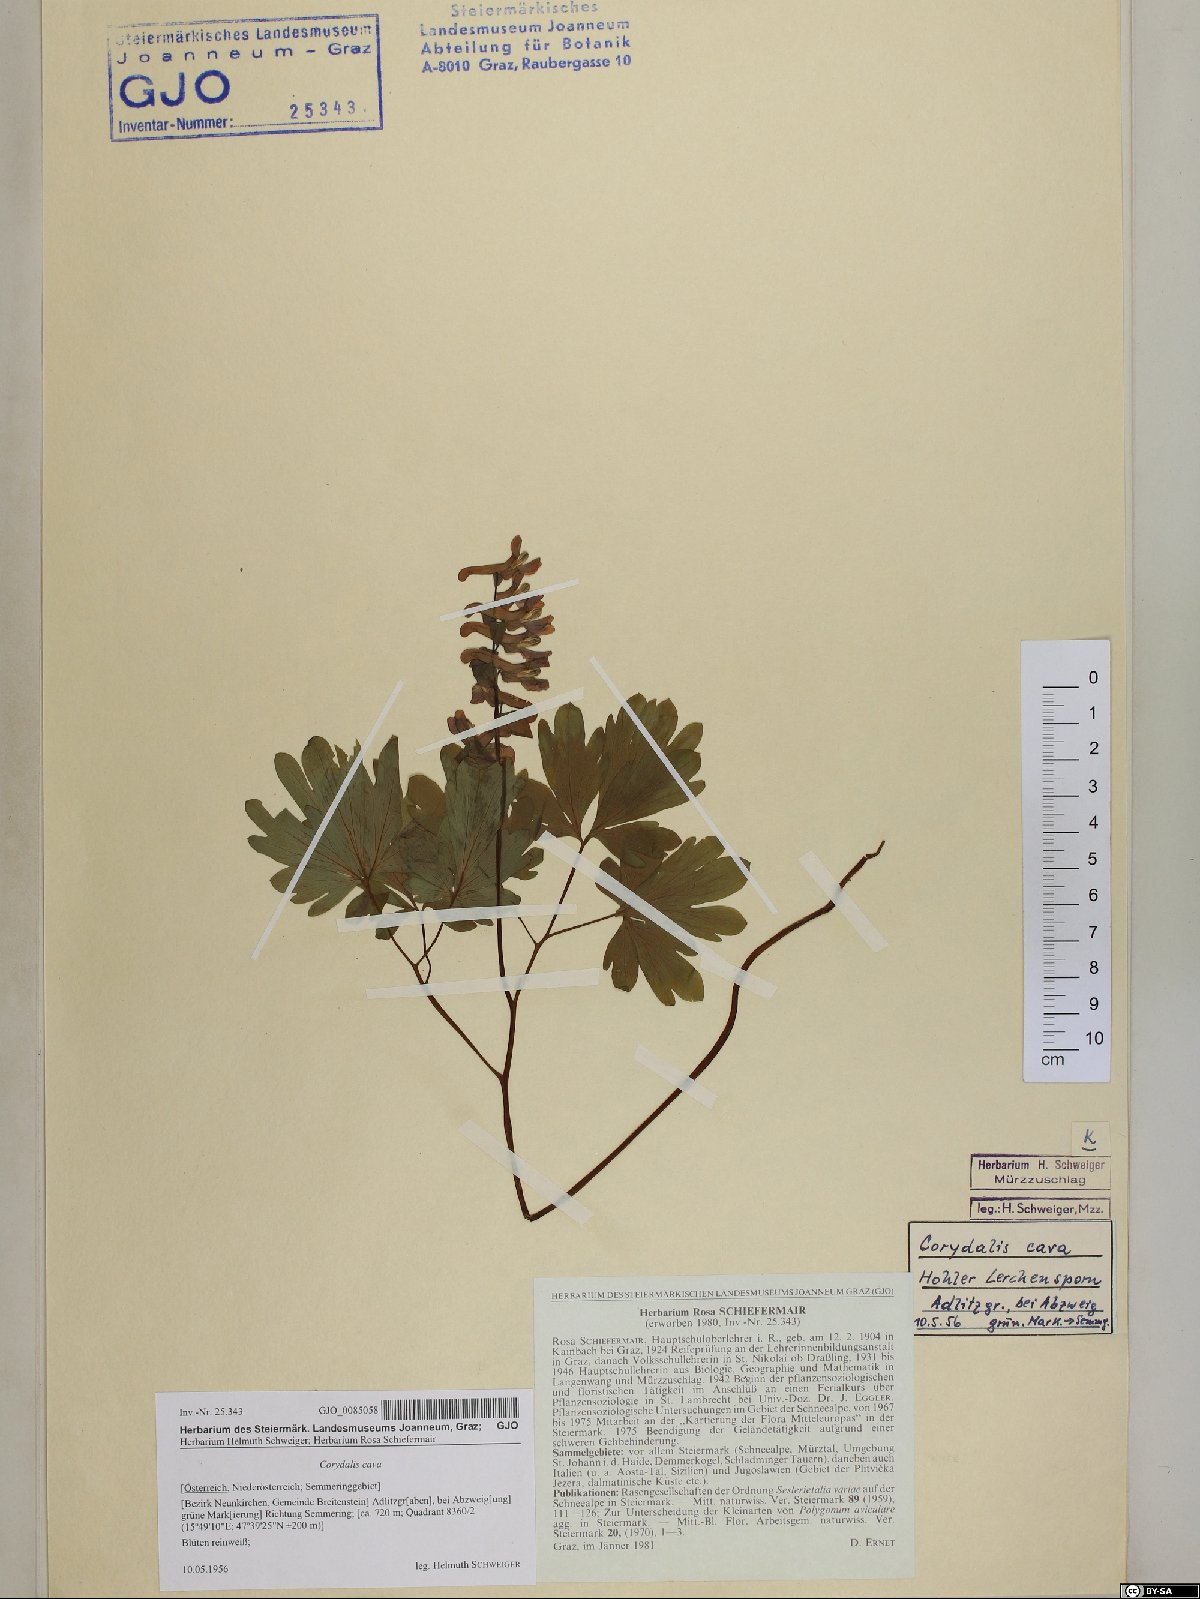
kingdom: Plantae
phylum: Tracheophyta
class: Magnoliopsida
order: Ranunculales
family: Papaveraceae
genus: Corydalis
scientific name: Corydalis cava
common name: Hollowroot
